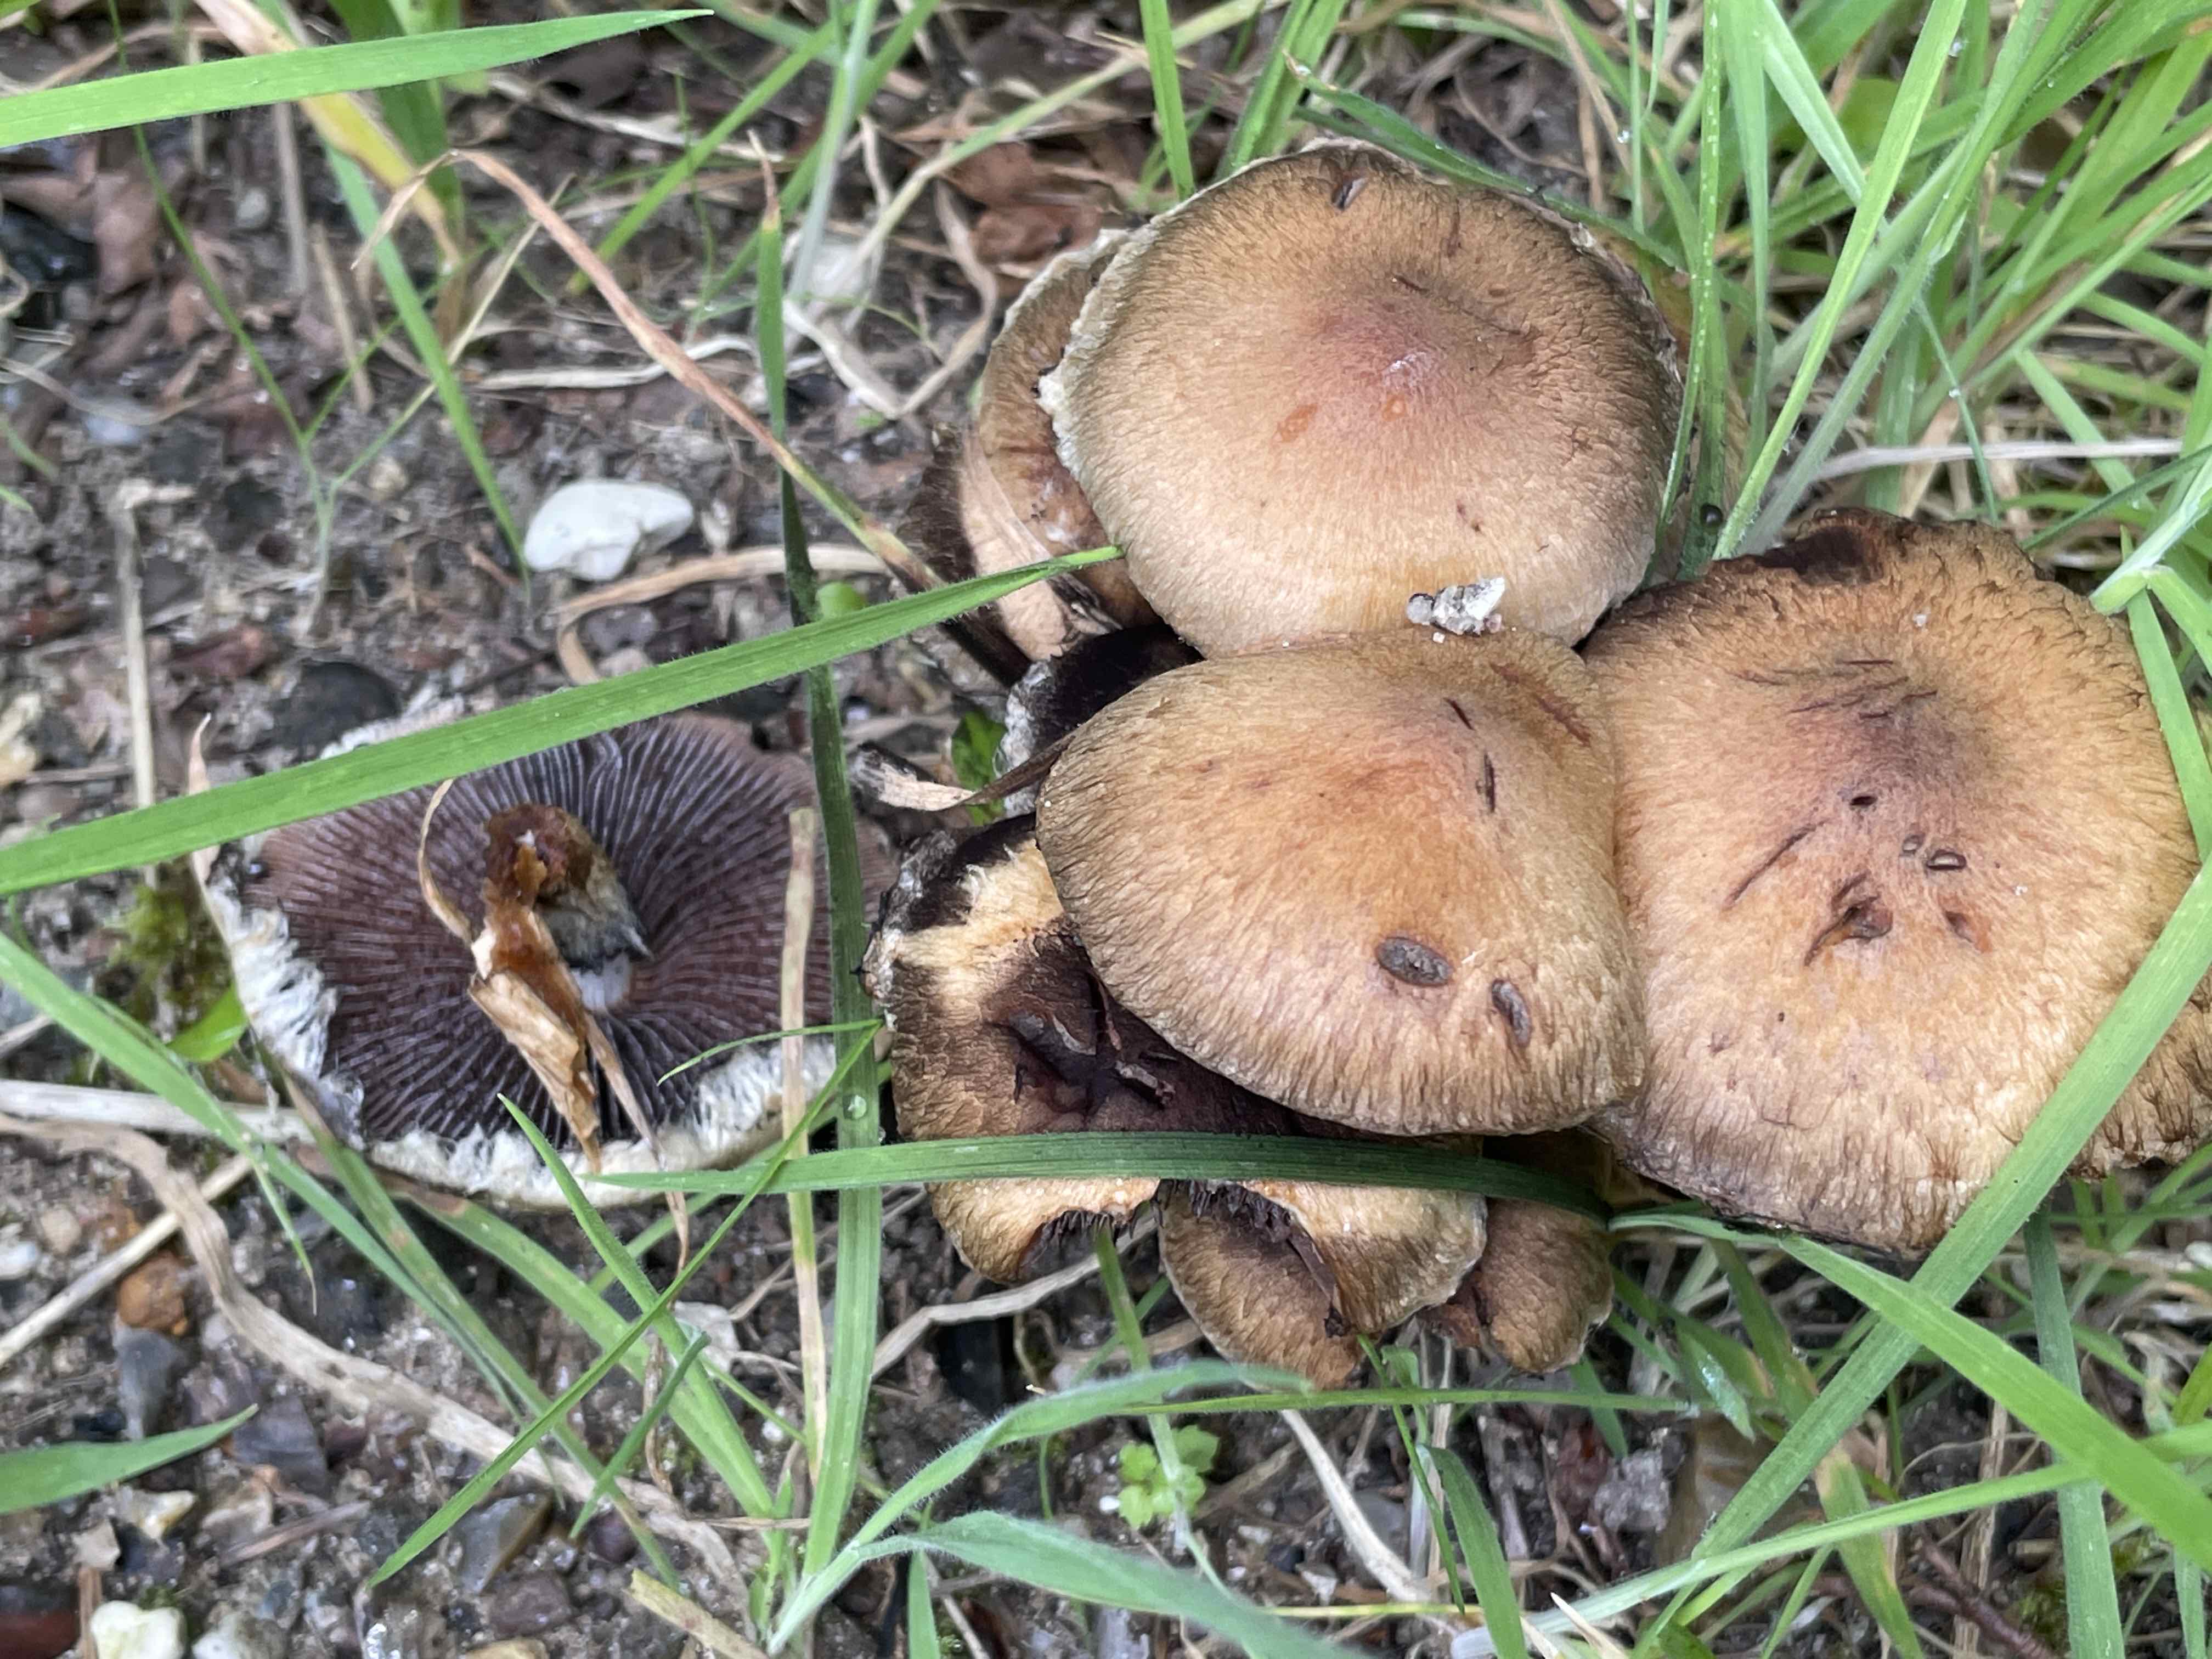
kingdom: Fungi
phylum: Basidiomycota
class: Agaricomycetes
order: Agaricales
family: Psathyrellaceae
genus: Lacrymaria
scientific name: Lacrymaria lacrymabunda
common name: grædende mørkhat
